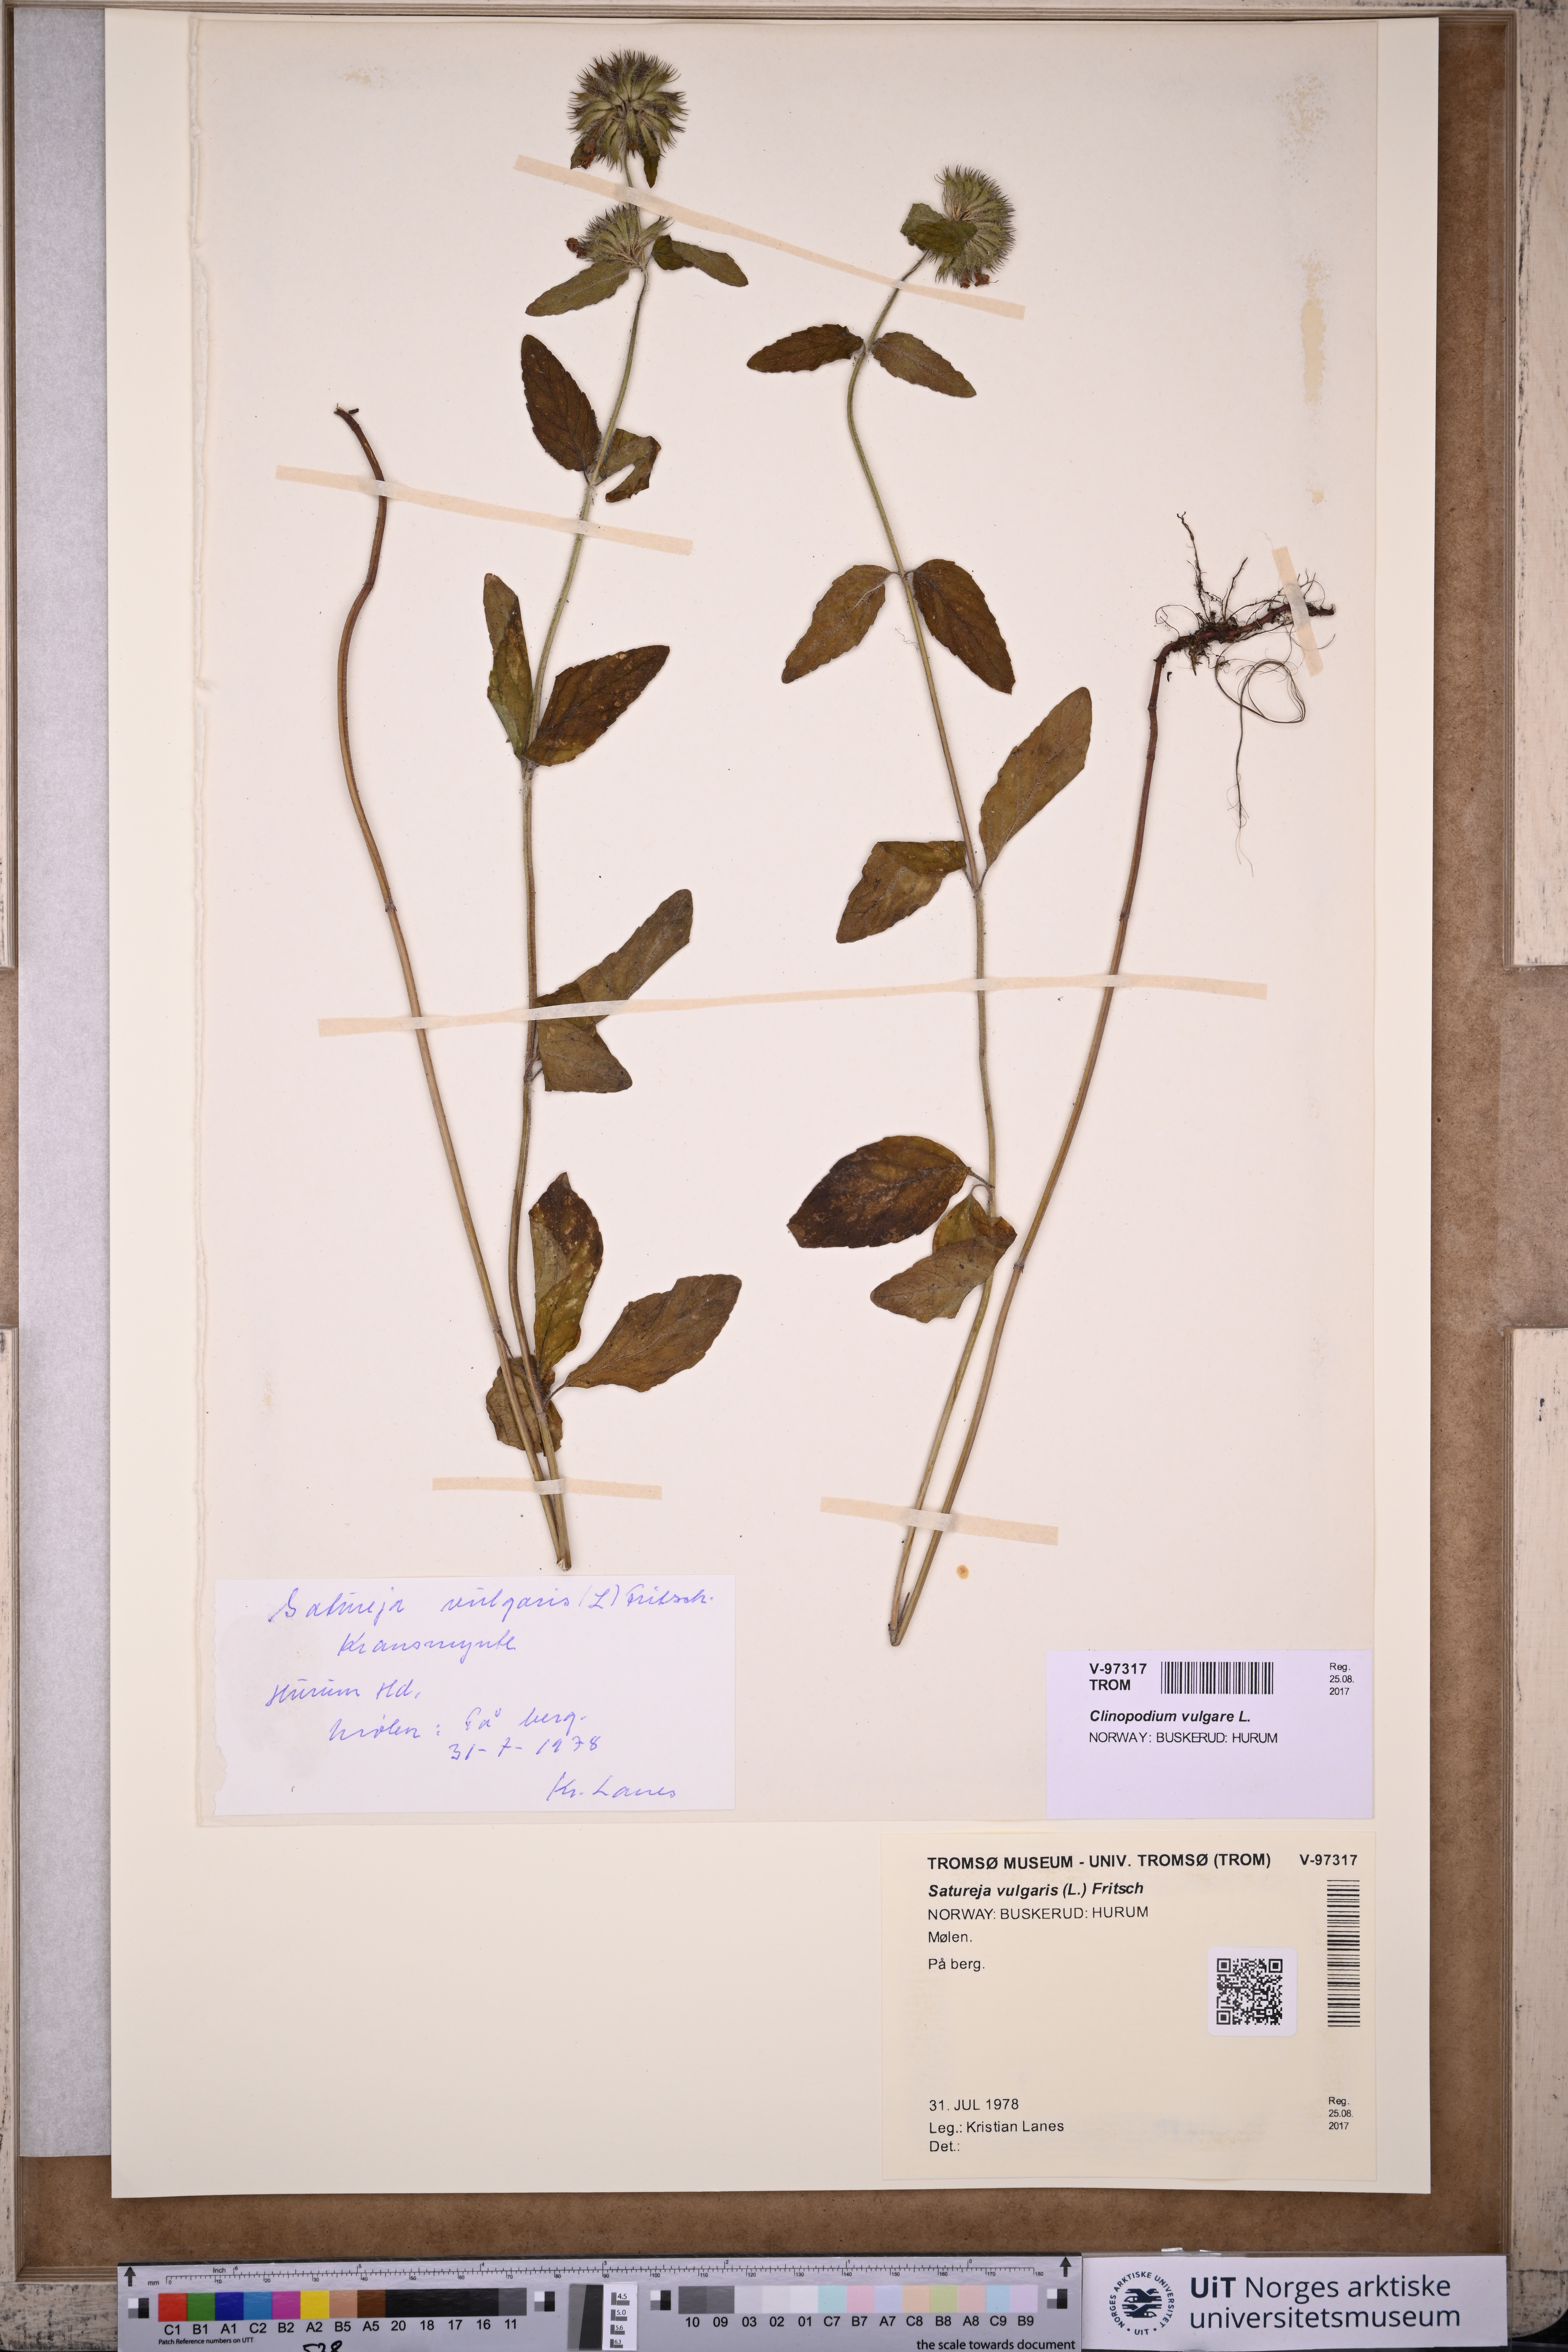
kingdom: Plantae
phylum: Tracheophyta
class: Magnoliopsida
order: Lamiales
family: Lamiaceae
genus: Clinopodium
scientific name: Clinopodium vulgare
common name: Wild basil
